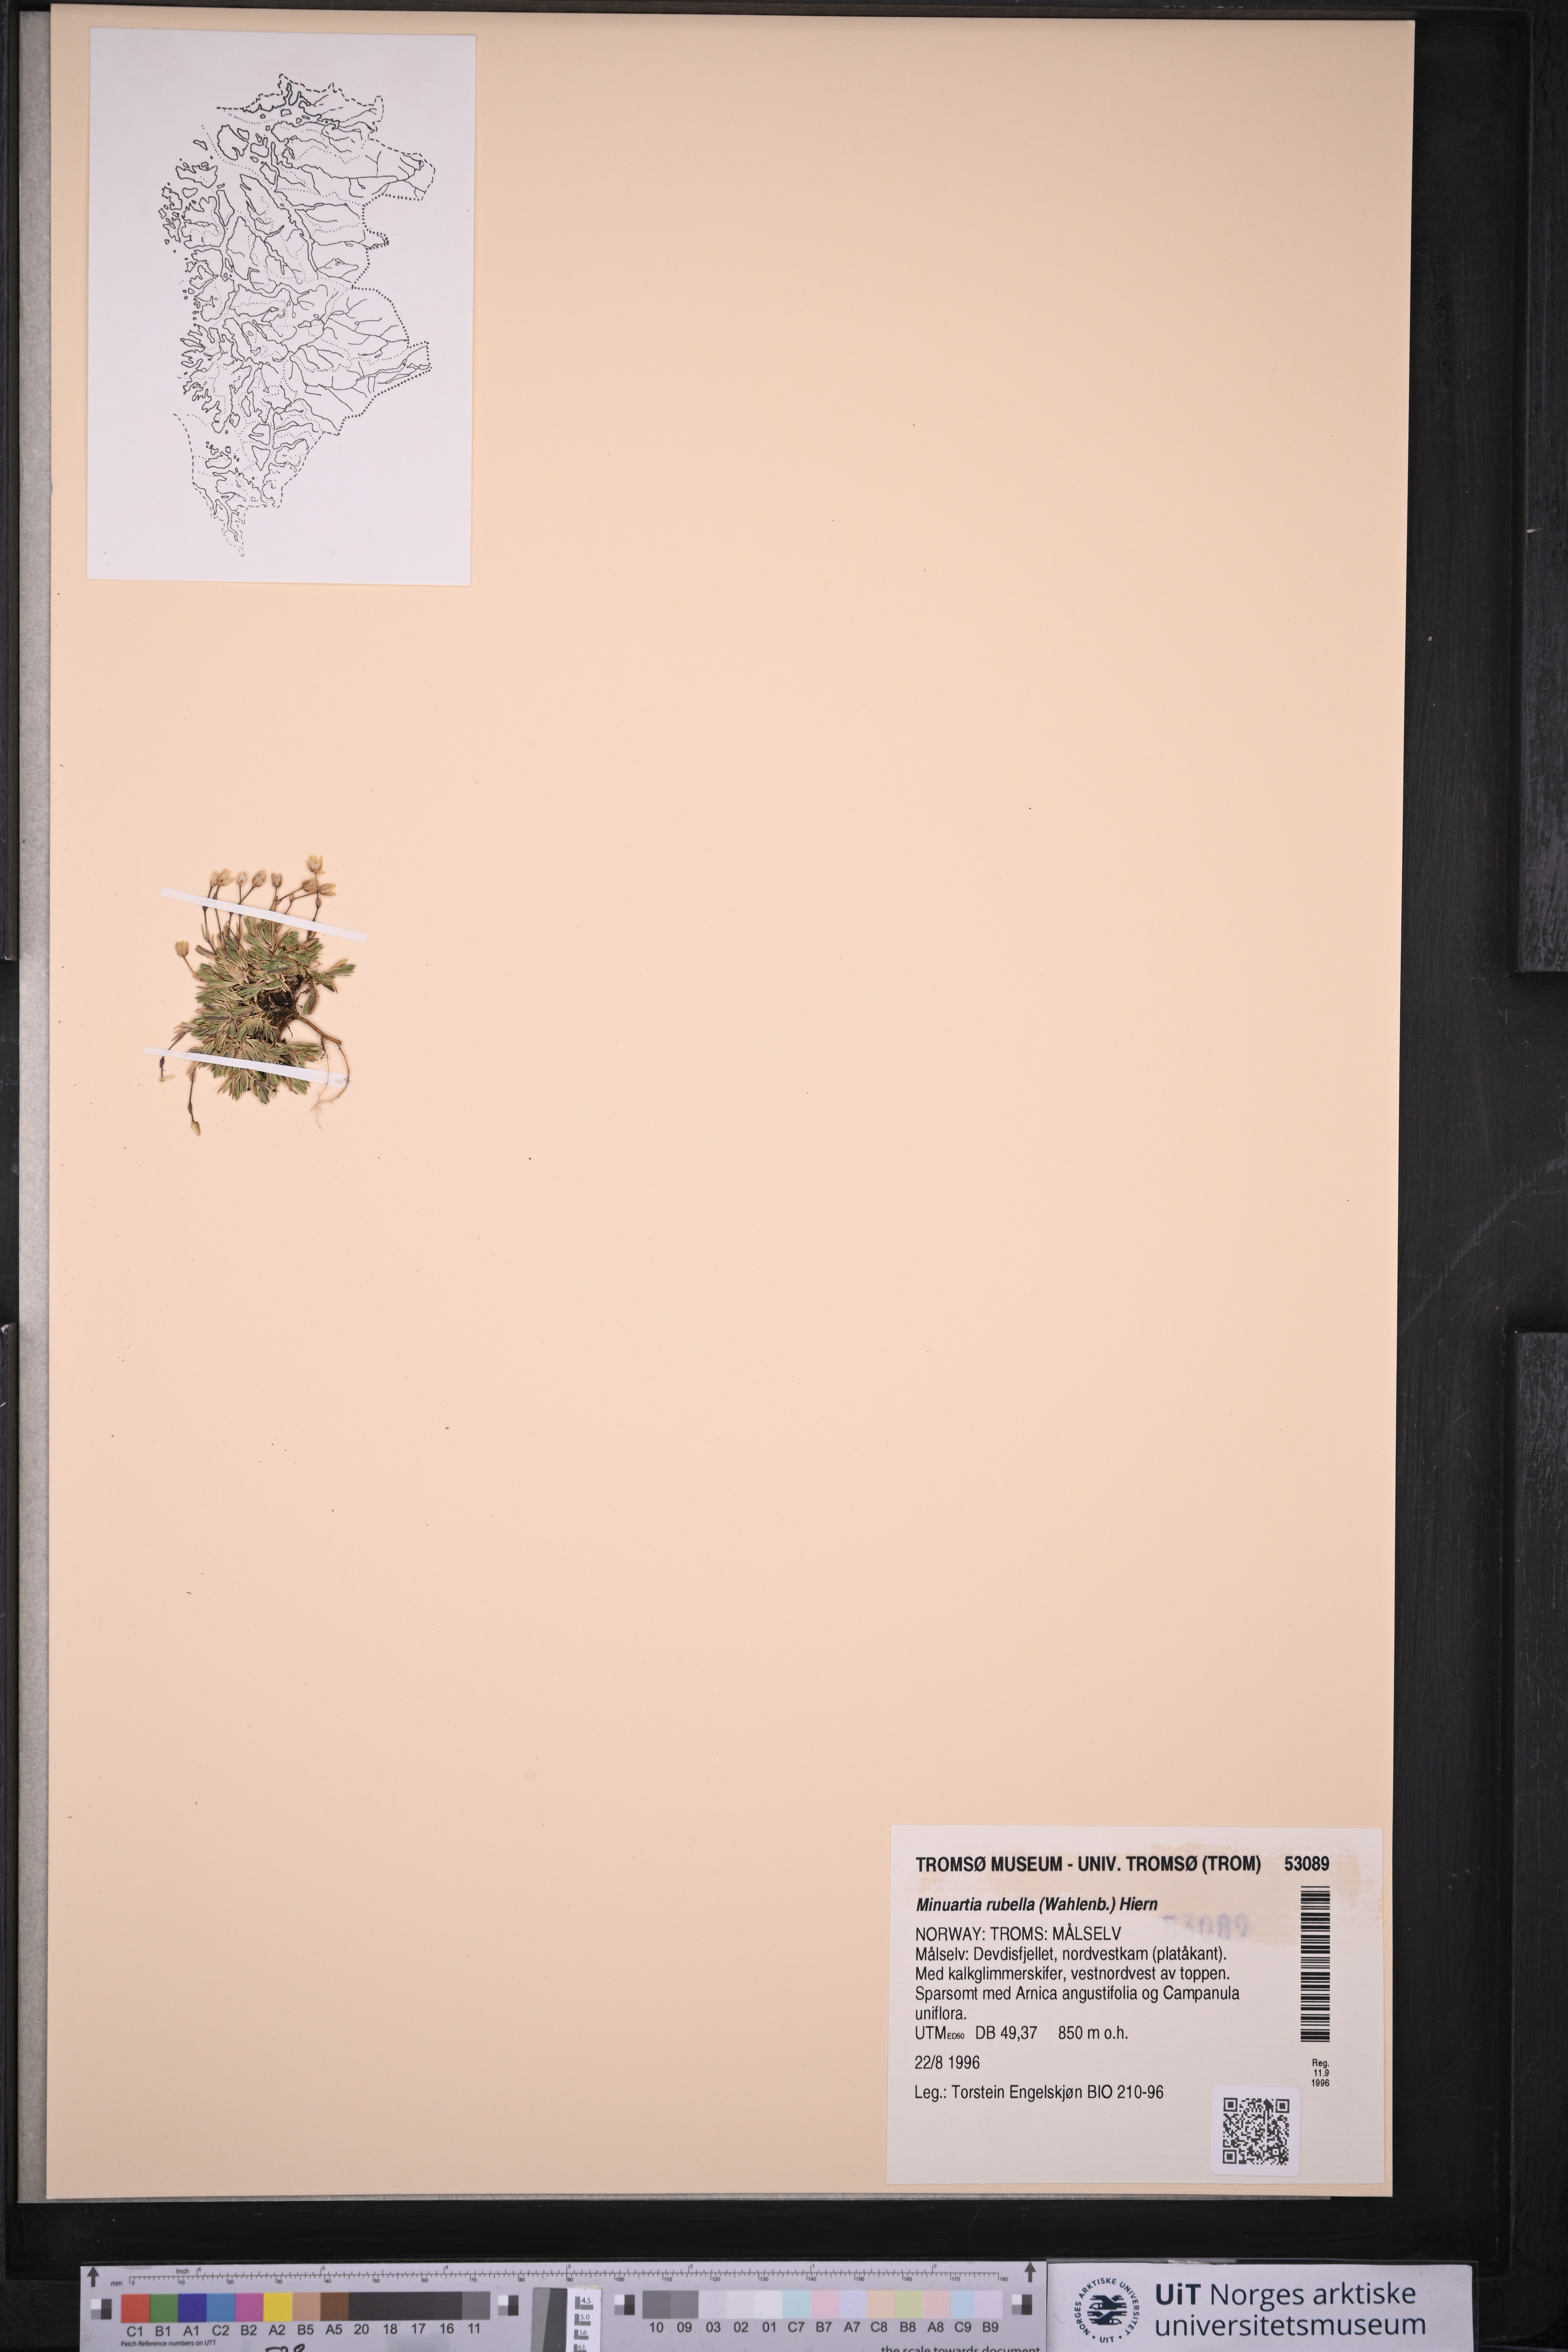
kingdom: Plantae
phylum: Tracheophyta
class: Magnoliopsida
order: Caryophyllales
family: Caryophyllaceae
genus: Sabulina
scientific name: Sabulina rubella
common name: Beautiful sandwort
